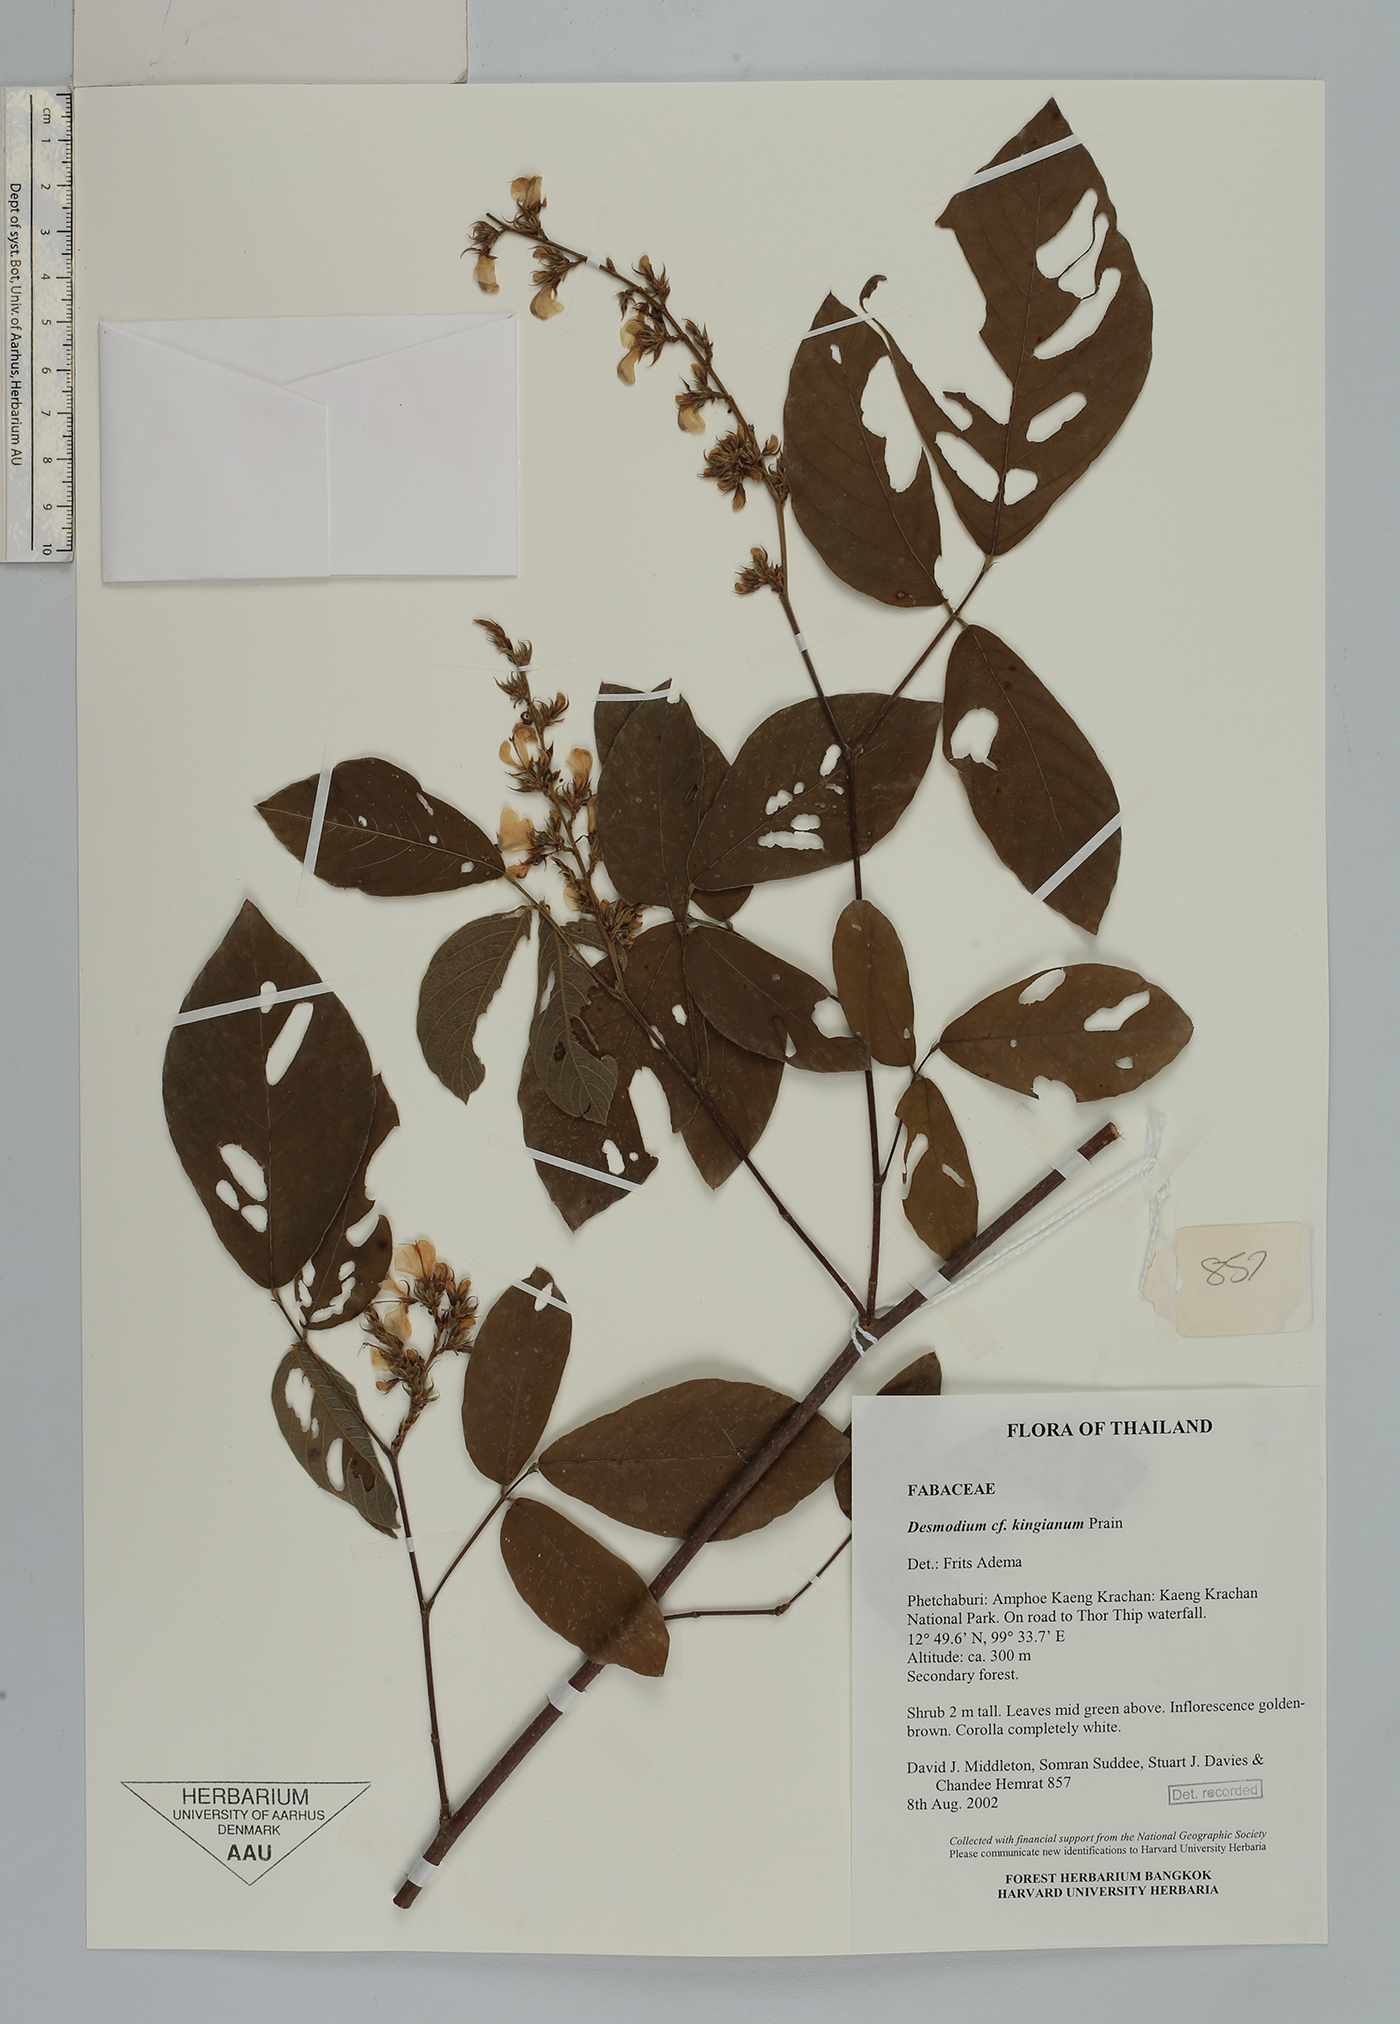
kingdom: Plantae
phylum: Tracheophyta
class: Magnoliopsida
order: Fabales
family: Fabaceae
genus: Dendrolobium
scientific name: Dendrolobium rugosum
